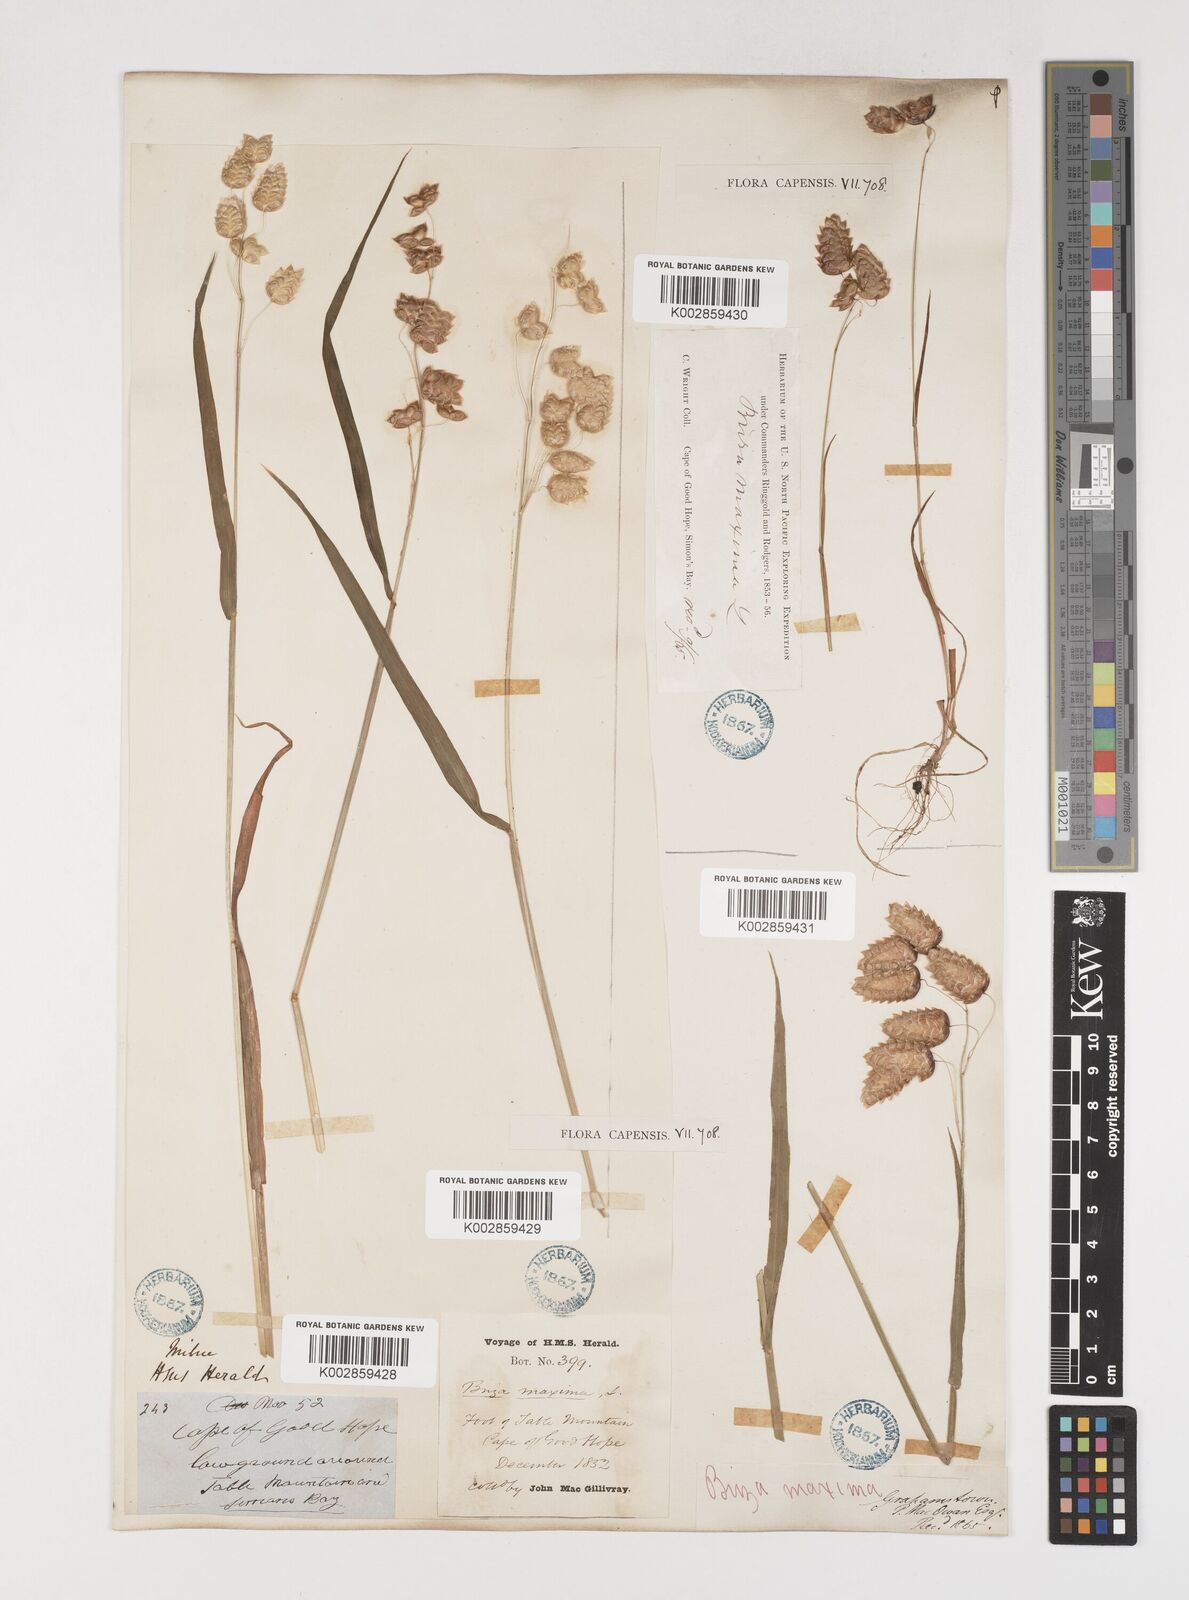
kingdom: Plantae
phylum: Tracheophyta
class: Liliopsida
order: Poales
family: Poaceae
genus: Briza
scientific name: Briza maxima
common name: Big quakinggrass
